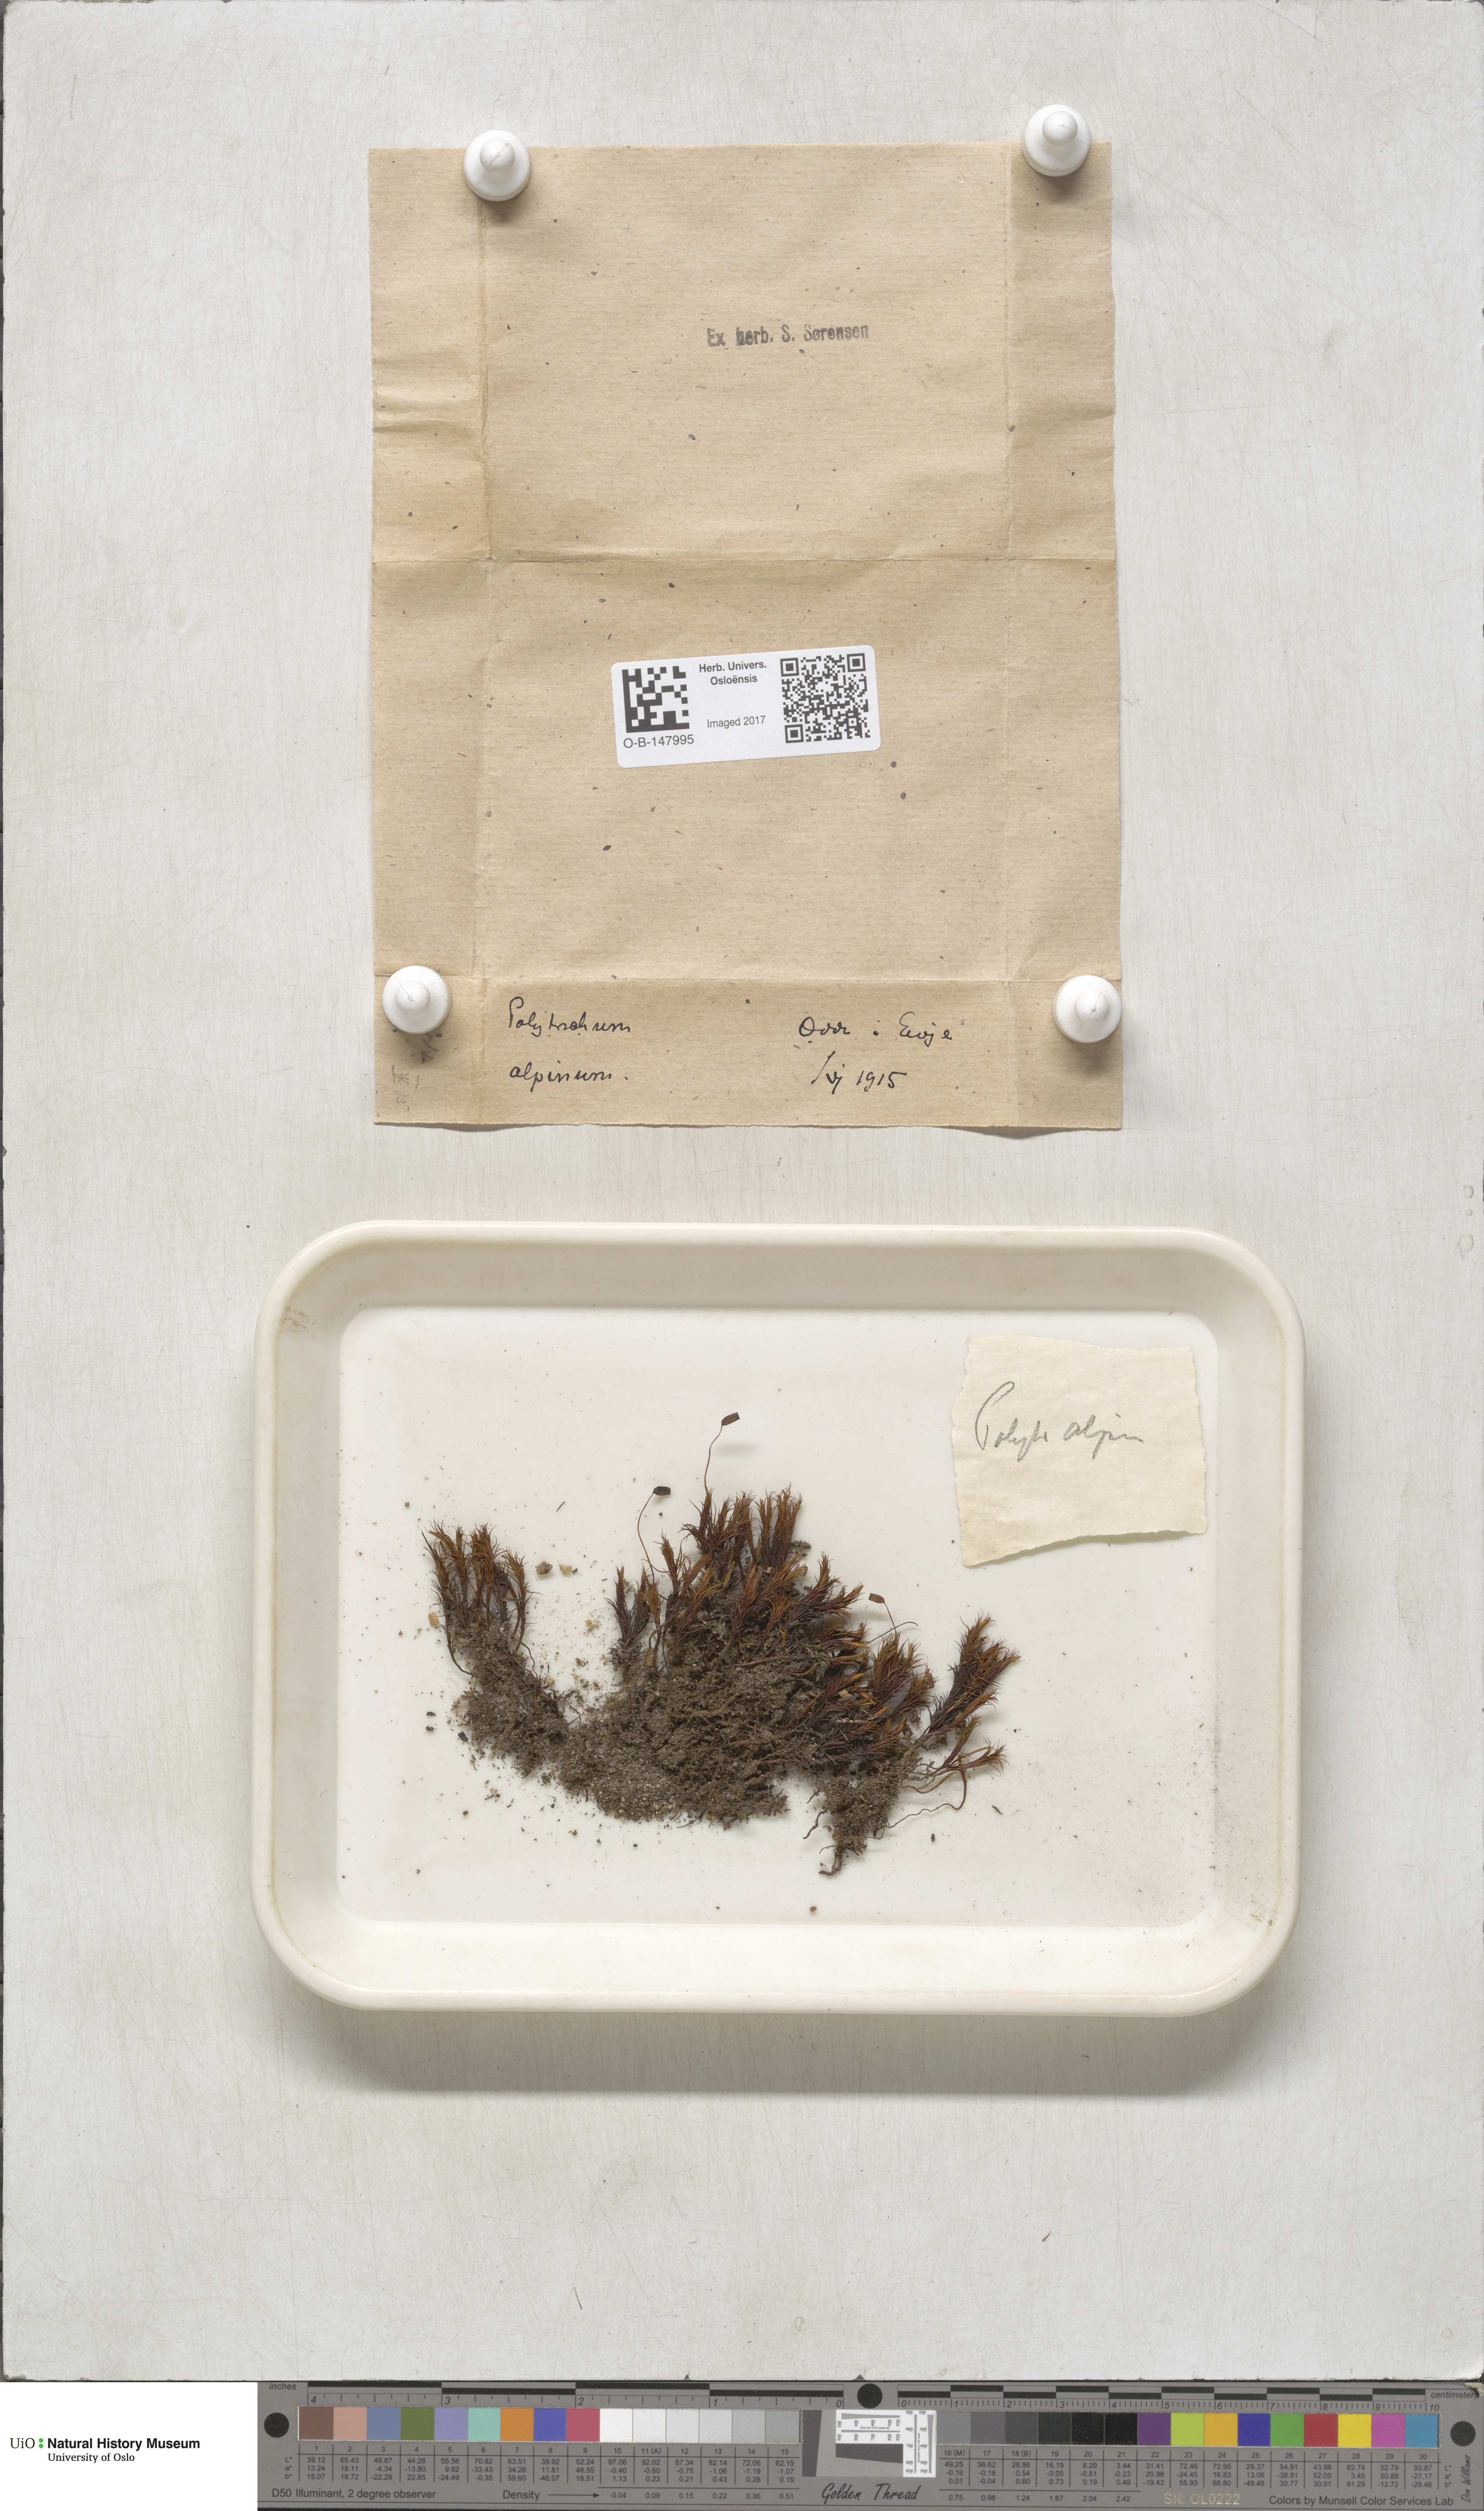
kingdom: Plantae
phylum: Bryophyta
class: Polytrichopsida
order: Polytrichales
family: Polytrichaceae
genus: Polytrichastrum
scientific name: Polytrichastrum alpinum
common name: Alpine haircap
